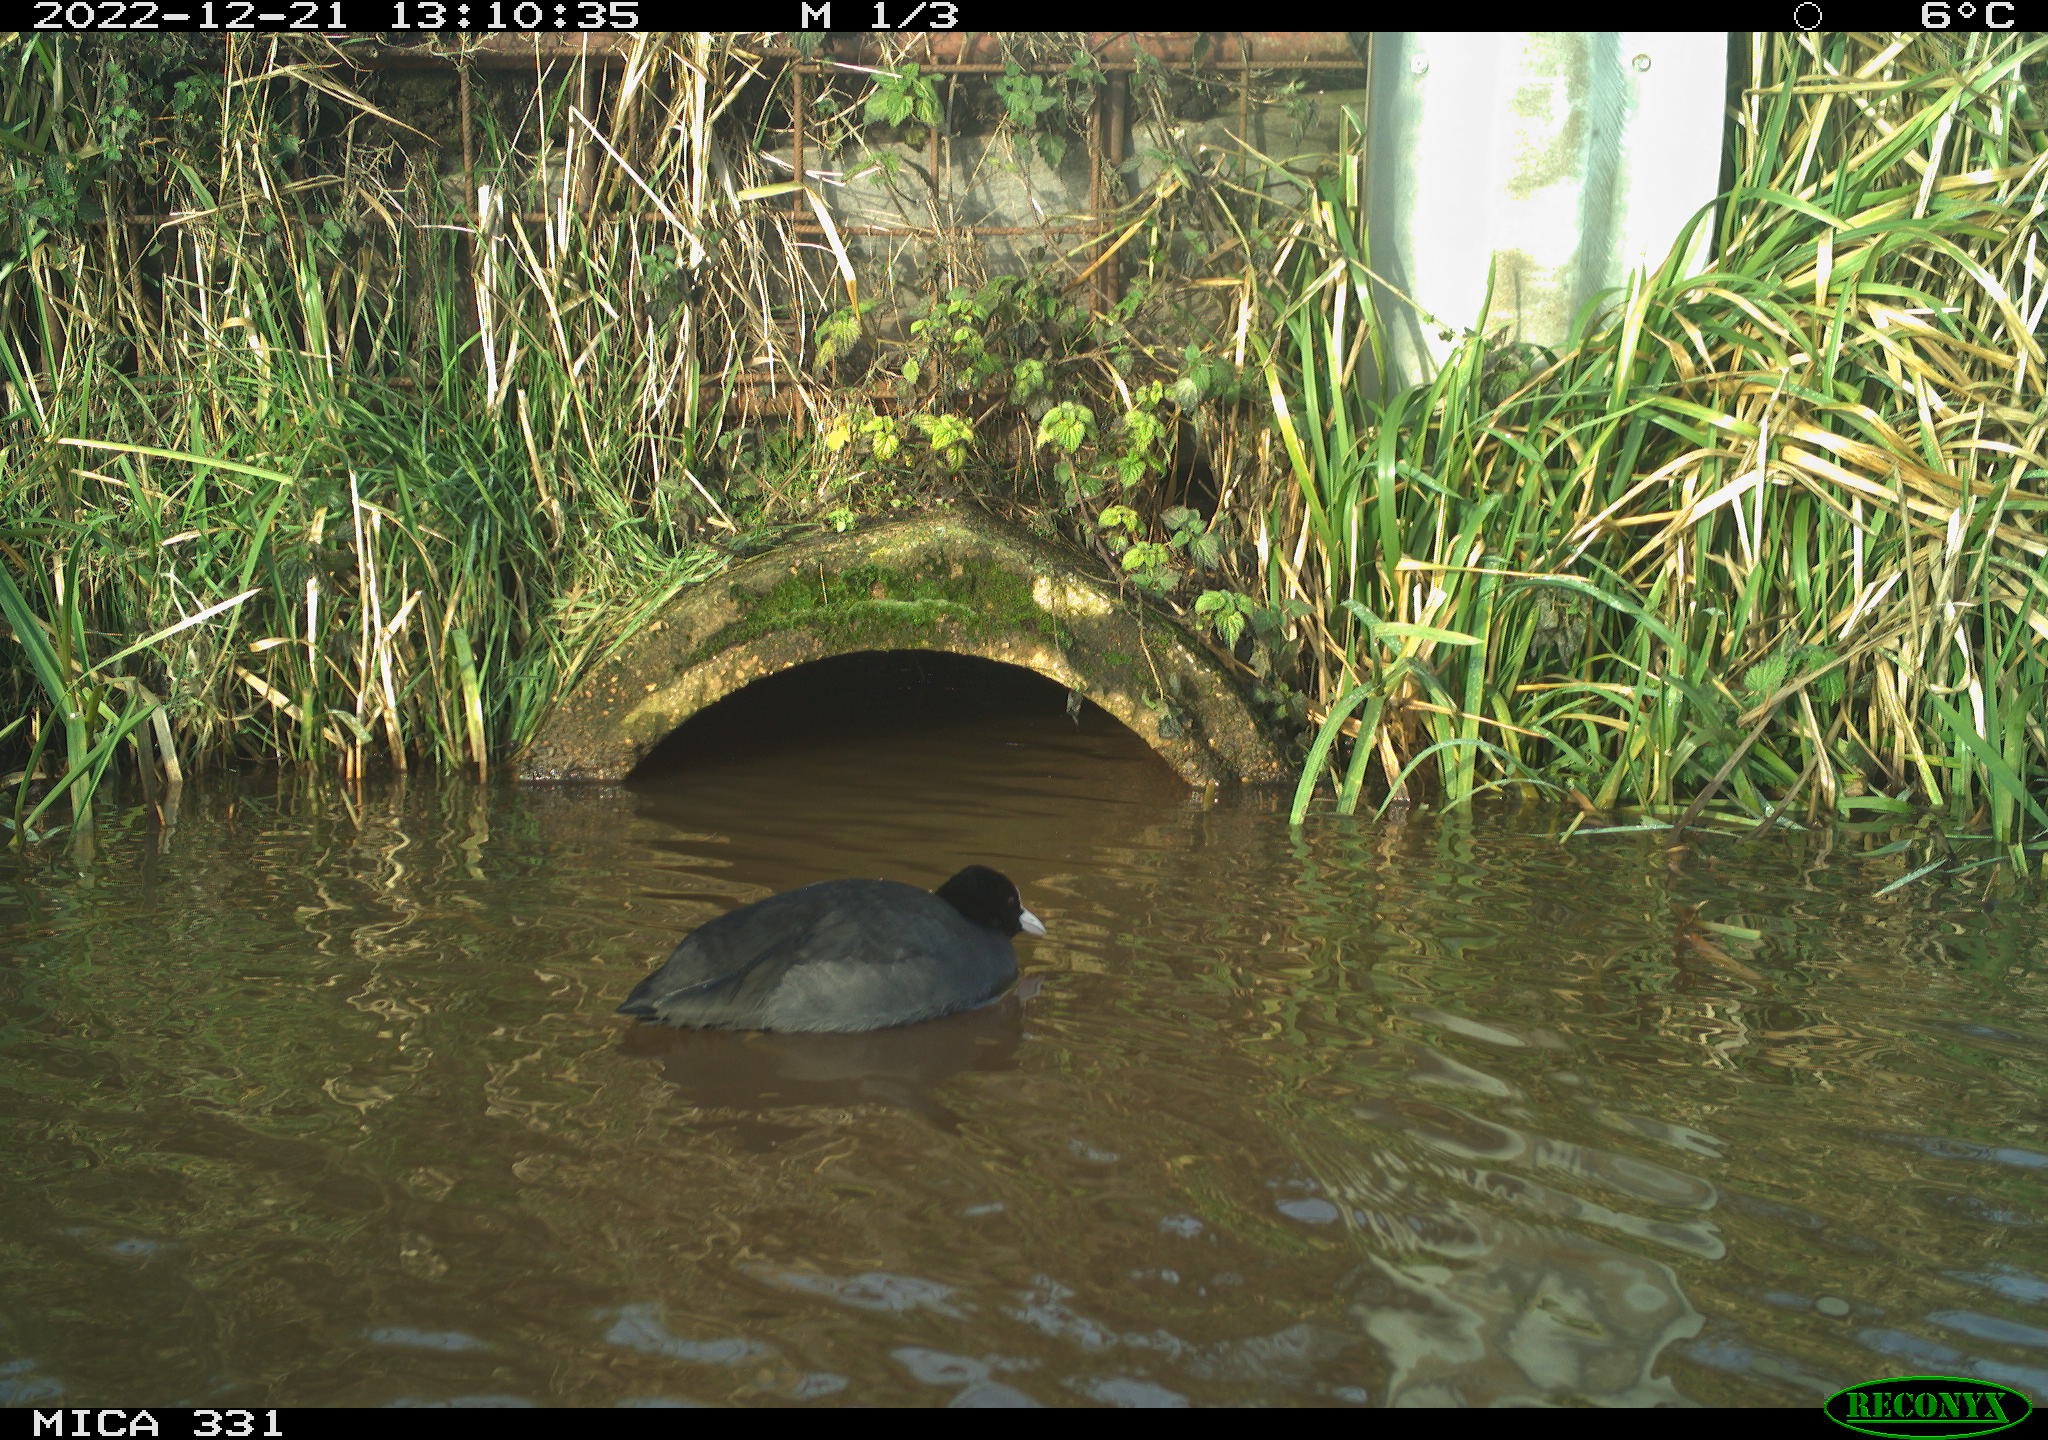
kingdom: Animalia
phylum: Chordata
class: Aves
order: Gruiformes
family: Rallidae
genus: Fulica
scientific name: Fulica atra
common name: Eurasian coot
